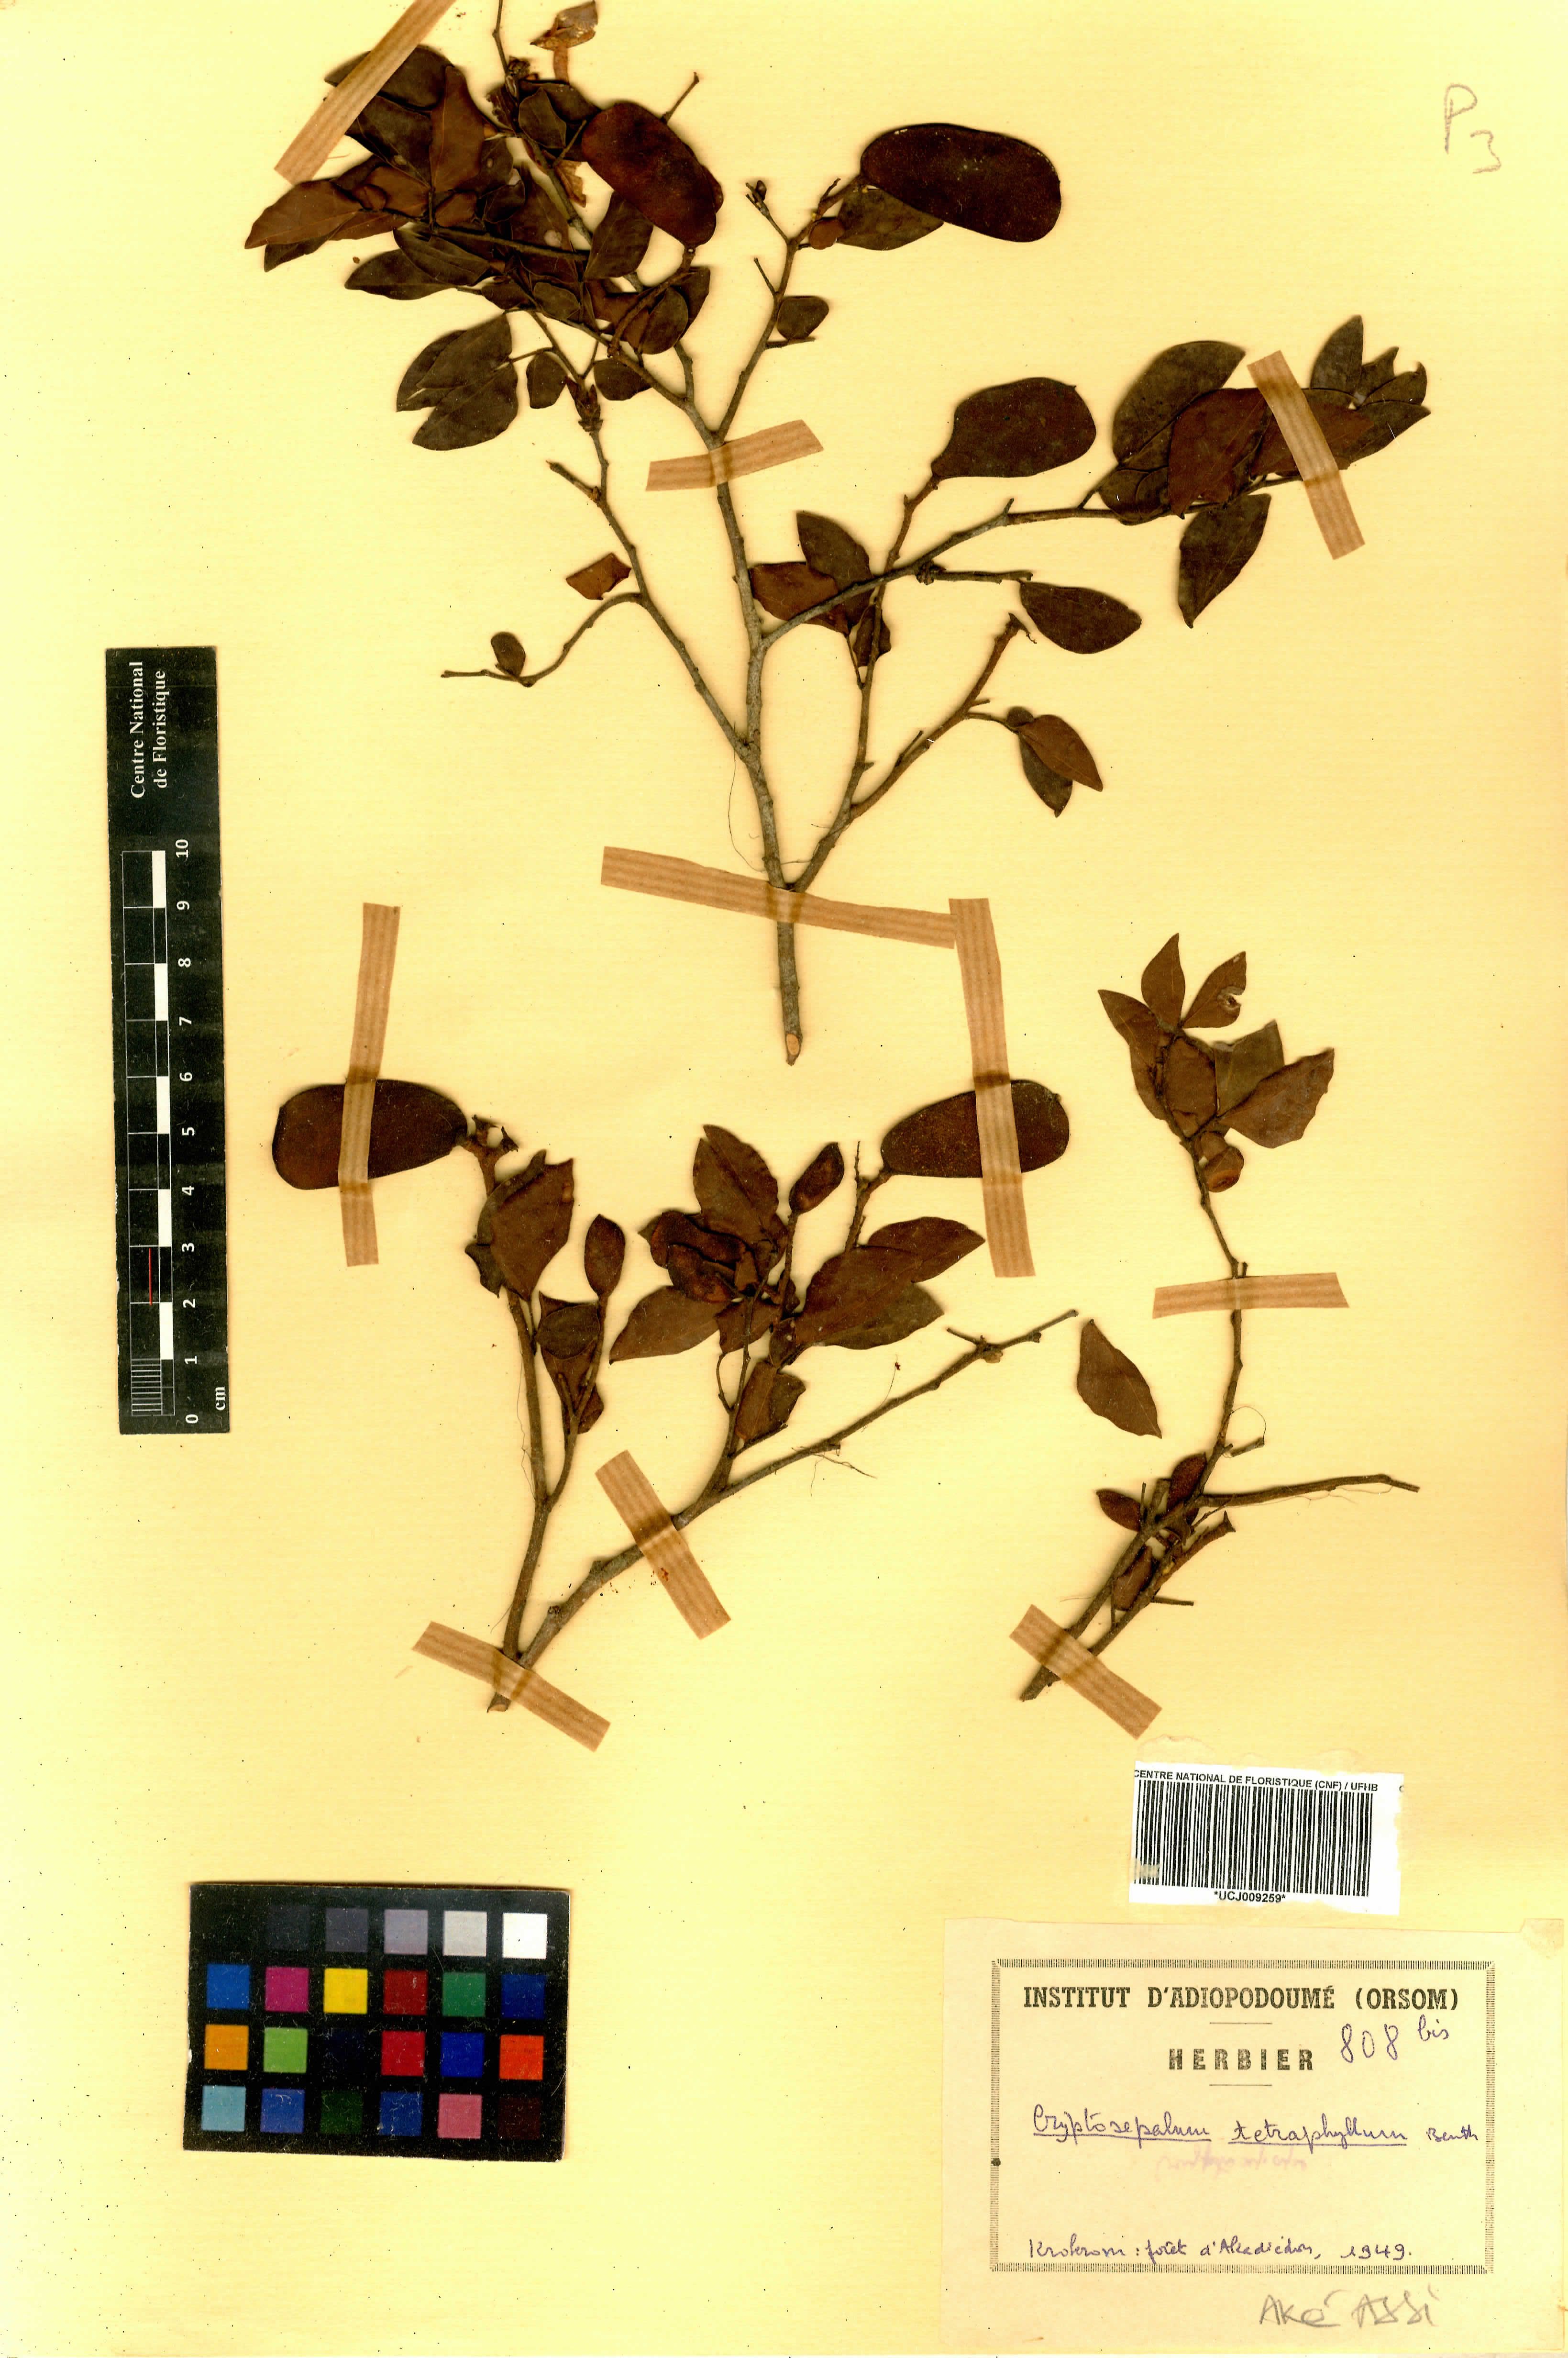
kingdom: Plantae
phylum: Tracheophyta
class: Magnoliopsida
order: Fabales
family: Fabaceae
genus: Cryptosepalum
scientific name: Cryptosepalum tetraphyllum
